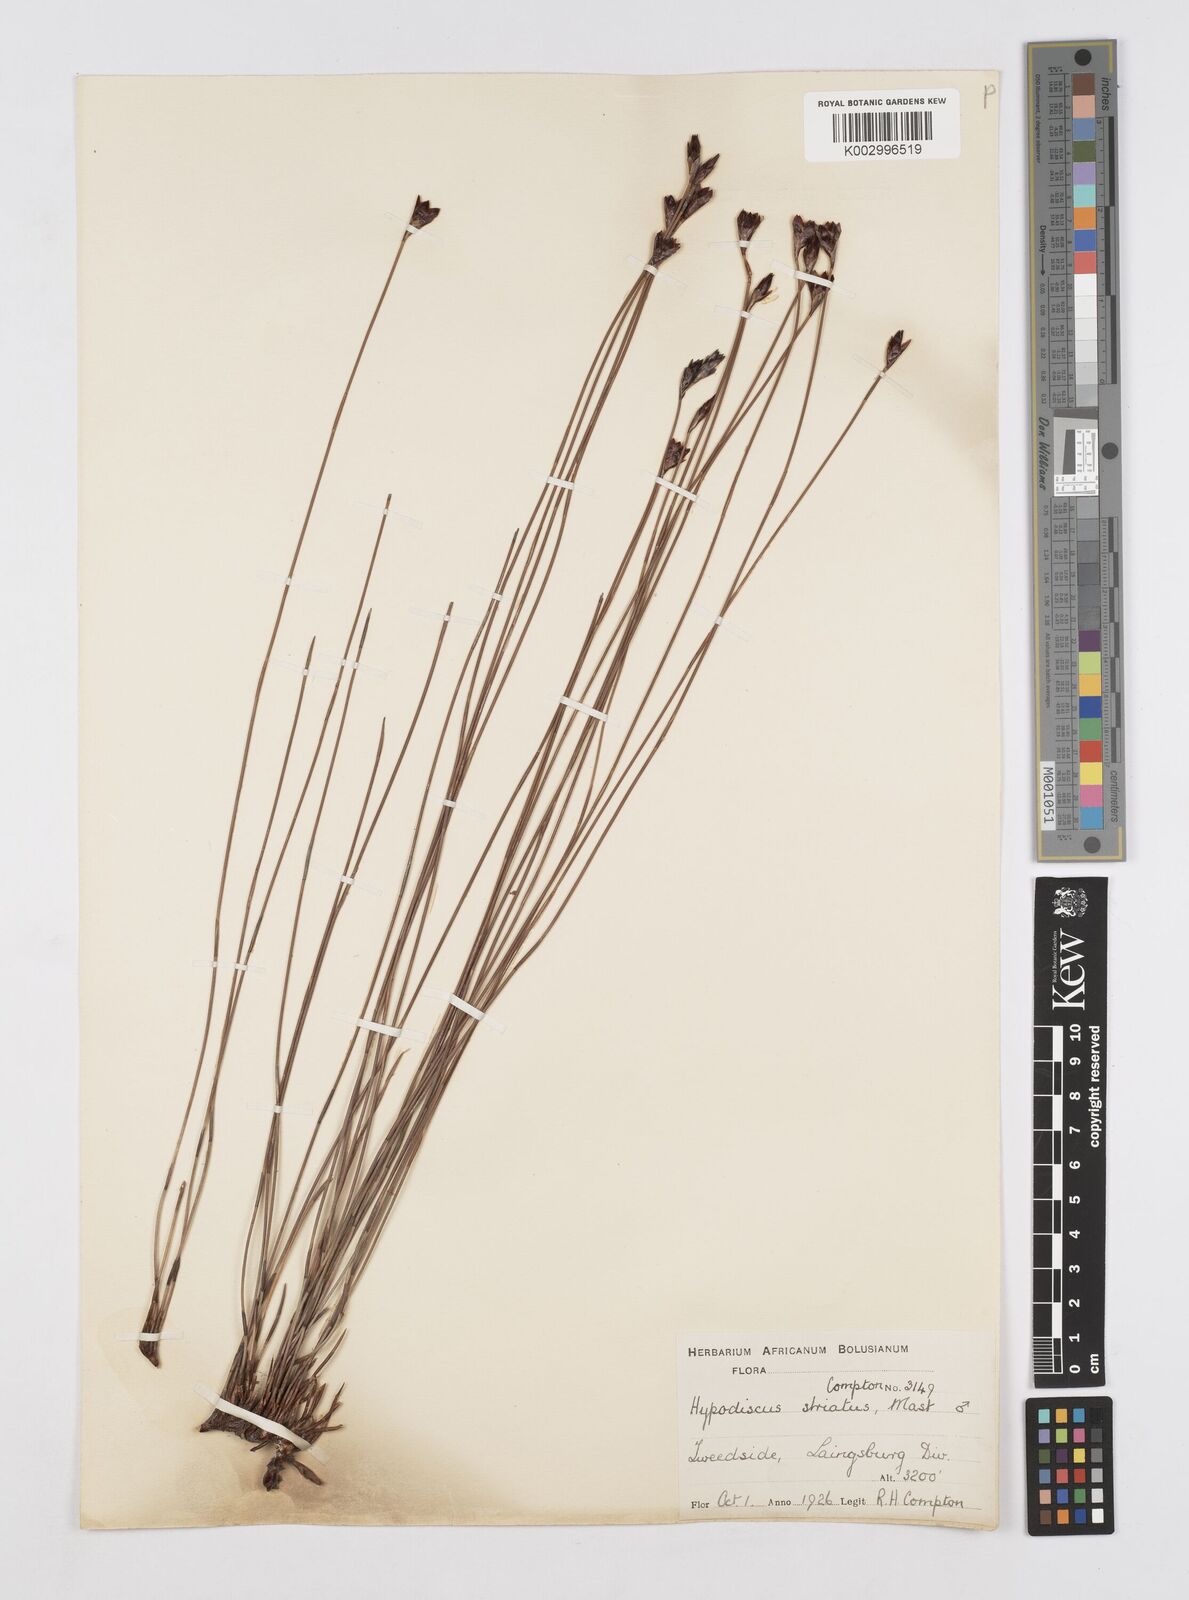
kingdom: Plantae
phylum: Tracheophyta
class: Liliopsida
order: Poales
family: Restionaceae
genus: Hypodiscus
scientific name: Hypodiscus striatus
